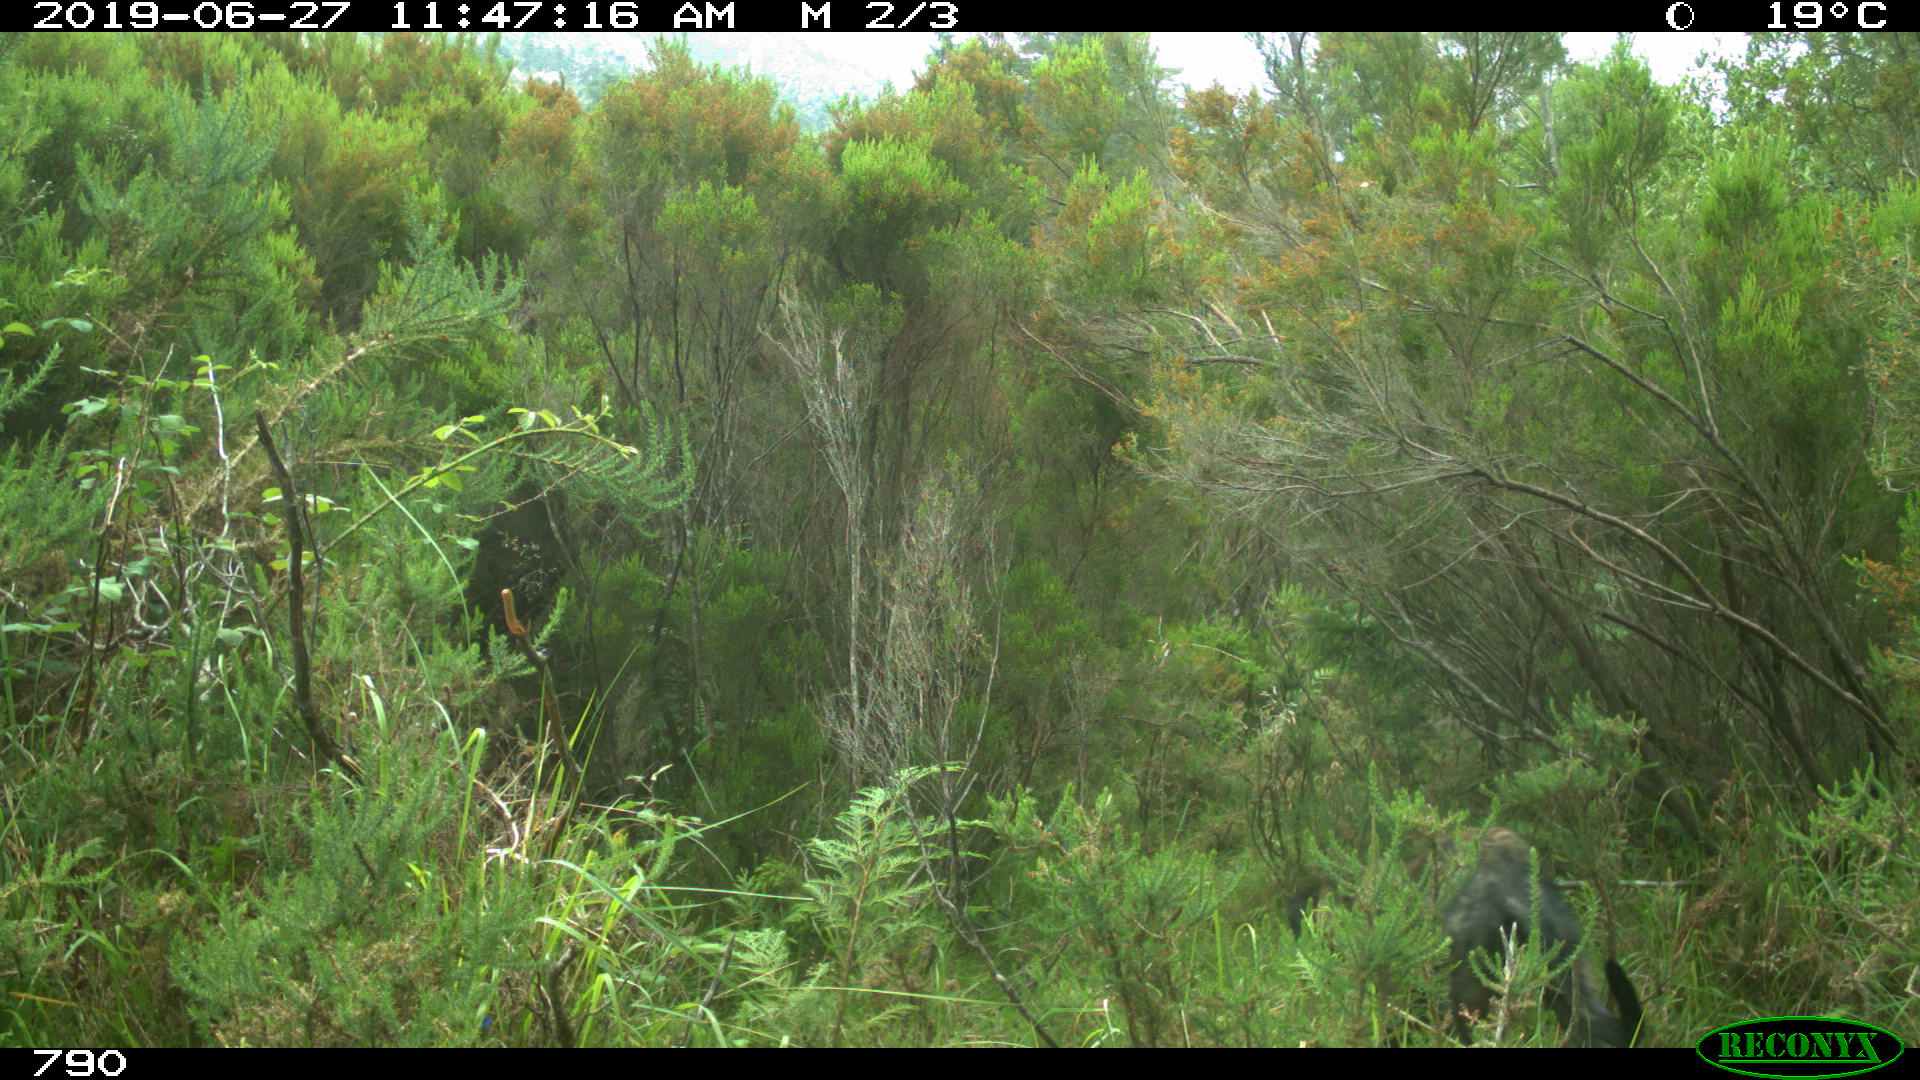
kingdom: Animalia
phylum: Chordata
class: Mammalia
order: Carnivora
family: Canidae
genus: Canis
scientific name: Canis lupus
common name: Gray wolf
